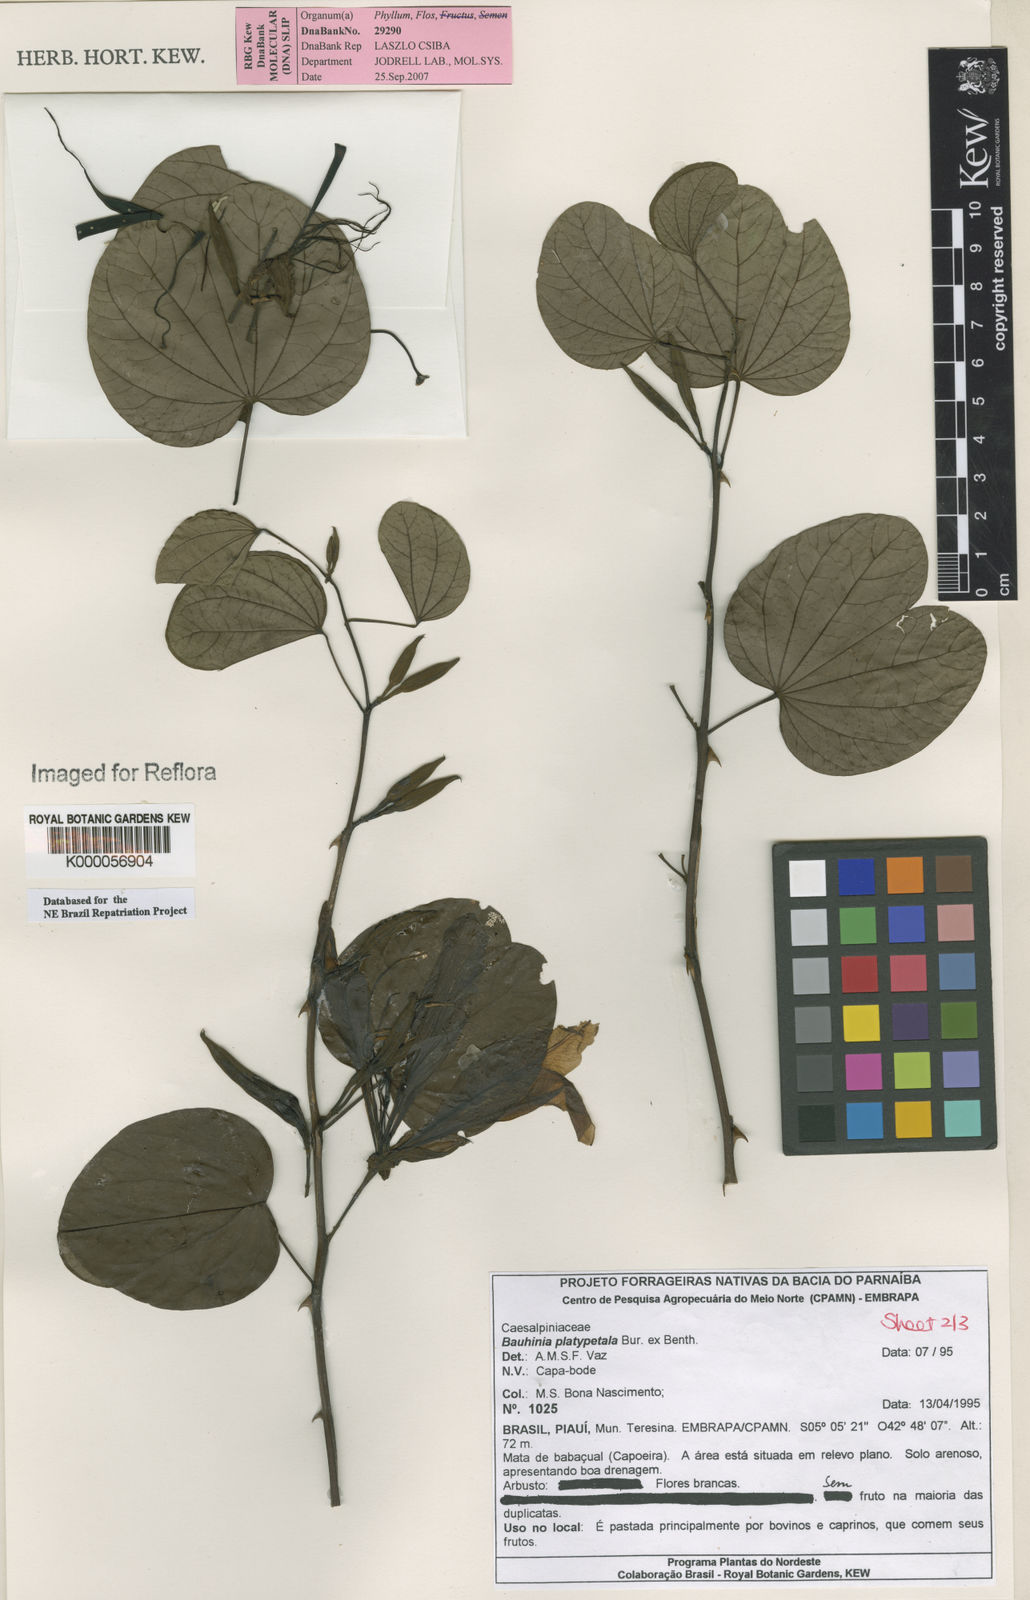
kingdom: Plantae
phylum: Tracheophyta
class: Magnoliopsida
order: Fabales
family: Fabaceae
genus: Bauhinia
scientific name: Bauhinia platypetala
